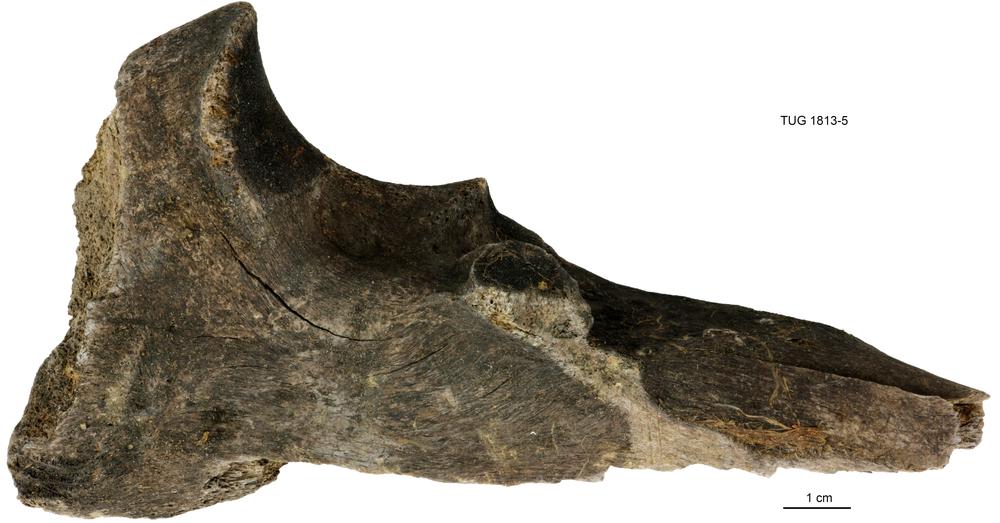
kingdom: Animalia
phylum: Chordata
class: Mammalia
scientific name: Mammalia
